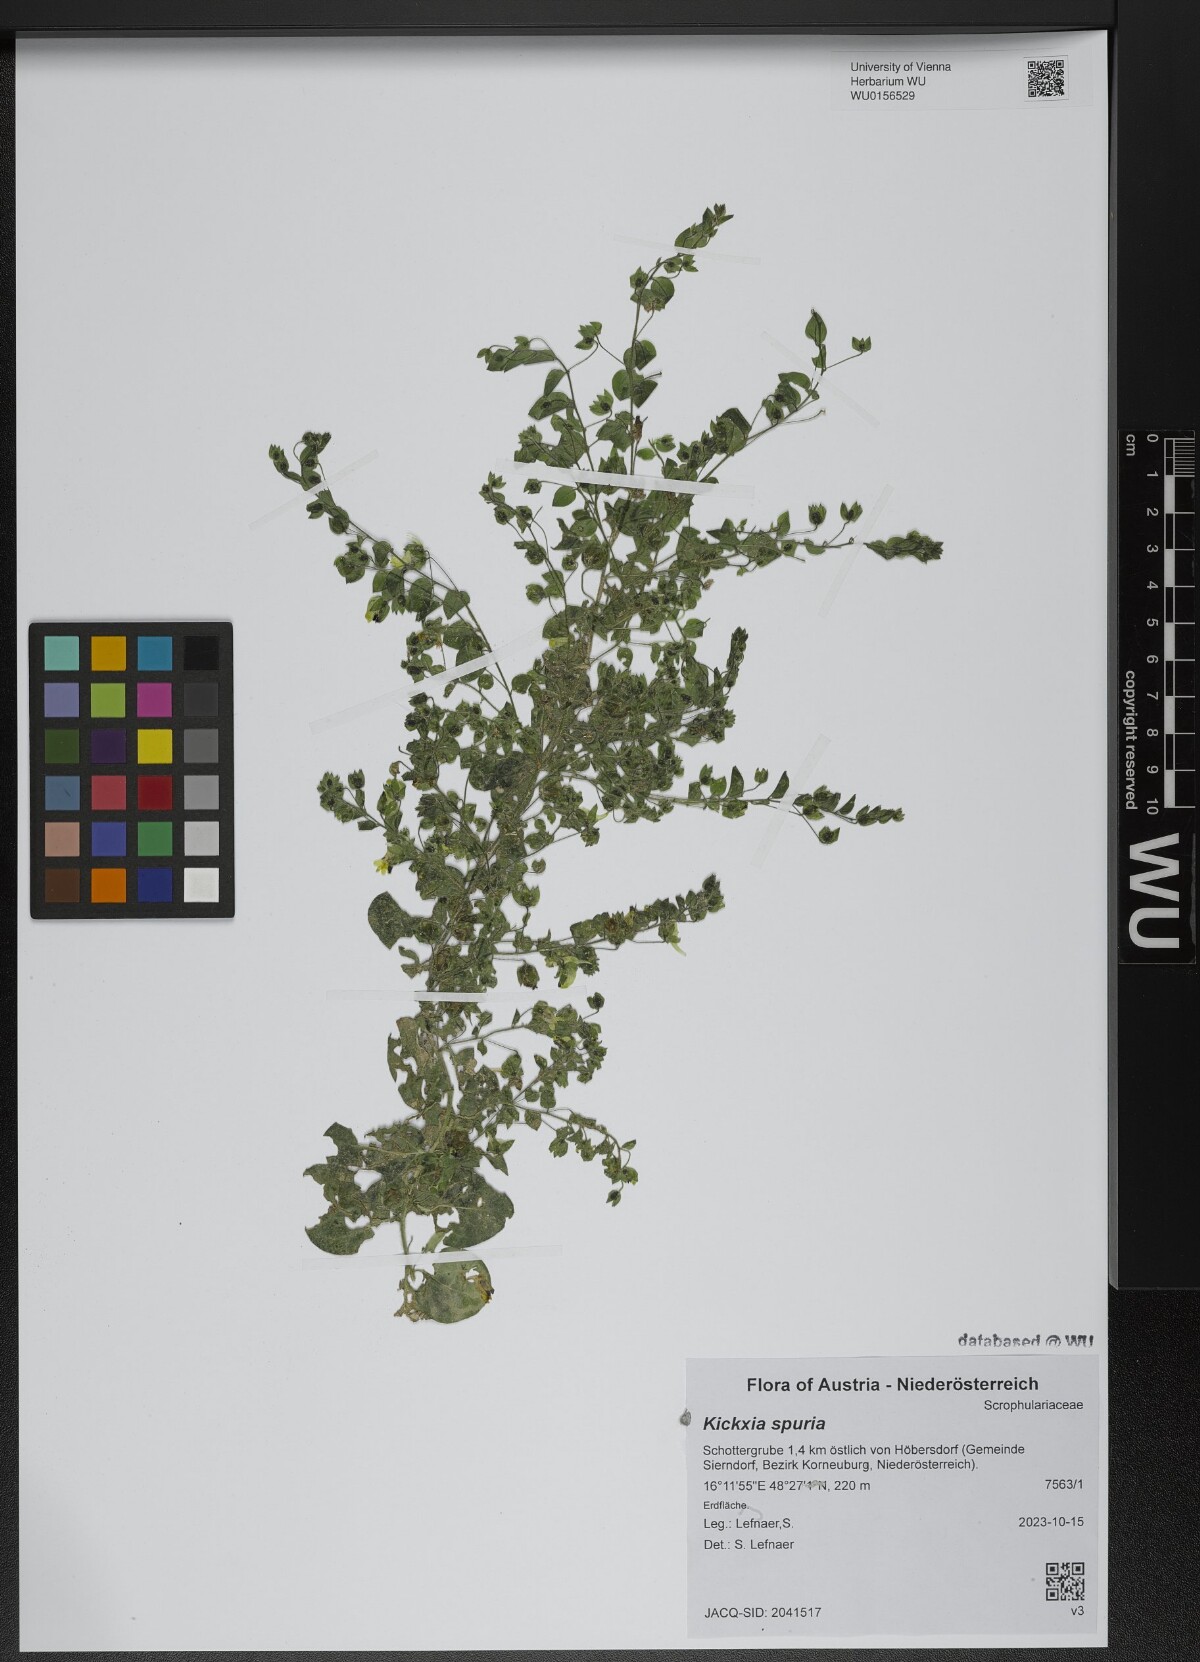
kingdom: Plantae
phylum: Tracheophyta
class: Magnoliopsida
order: Lamiales
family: Plantaginaceae
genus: Kickxia
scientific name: Kickxia spuria
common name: Round-leaved fluellen
